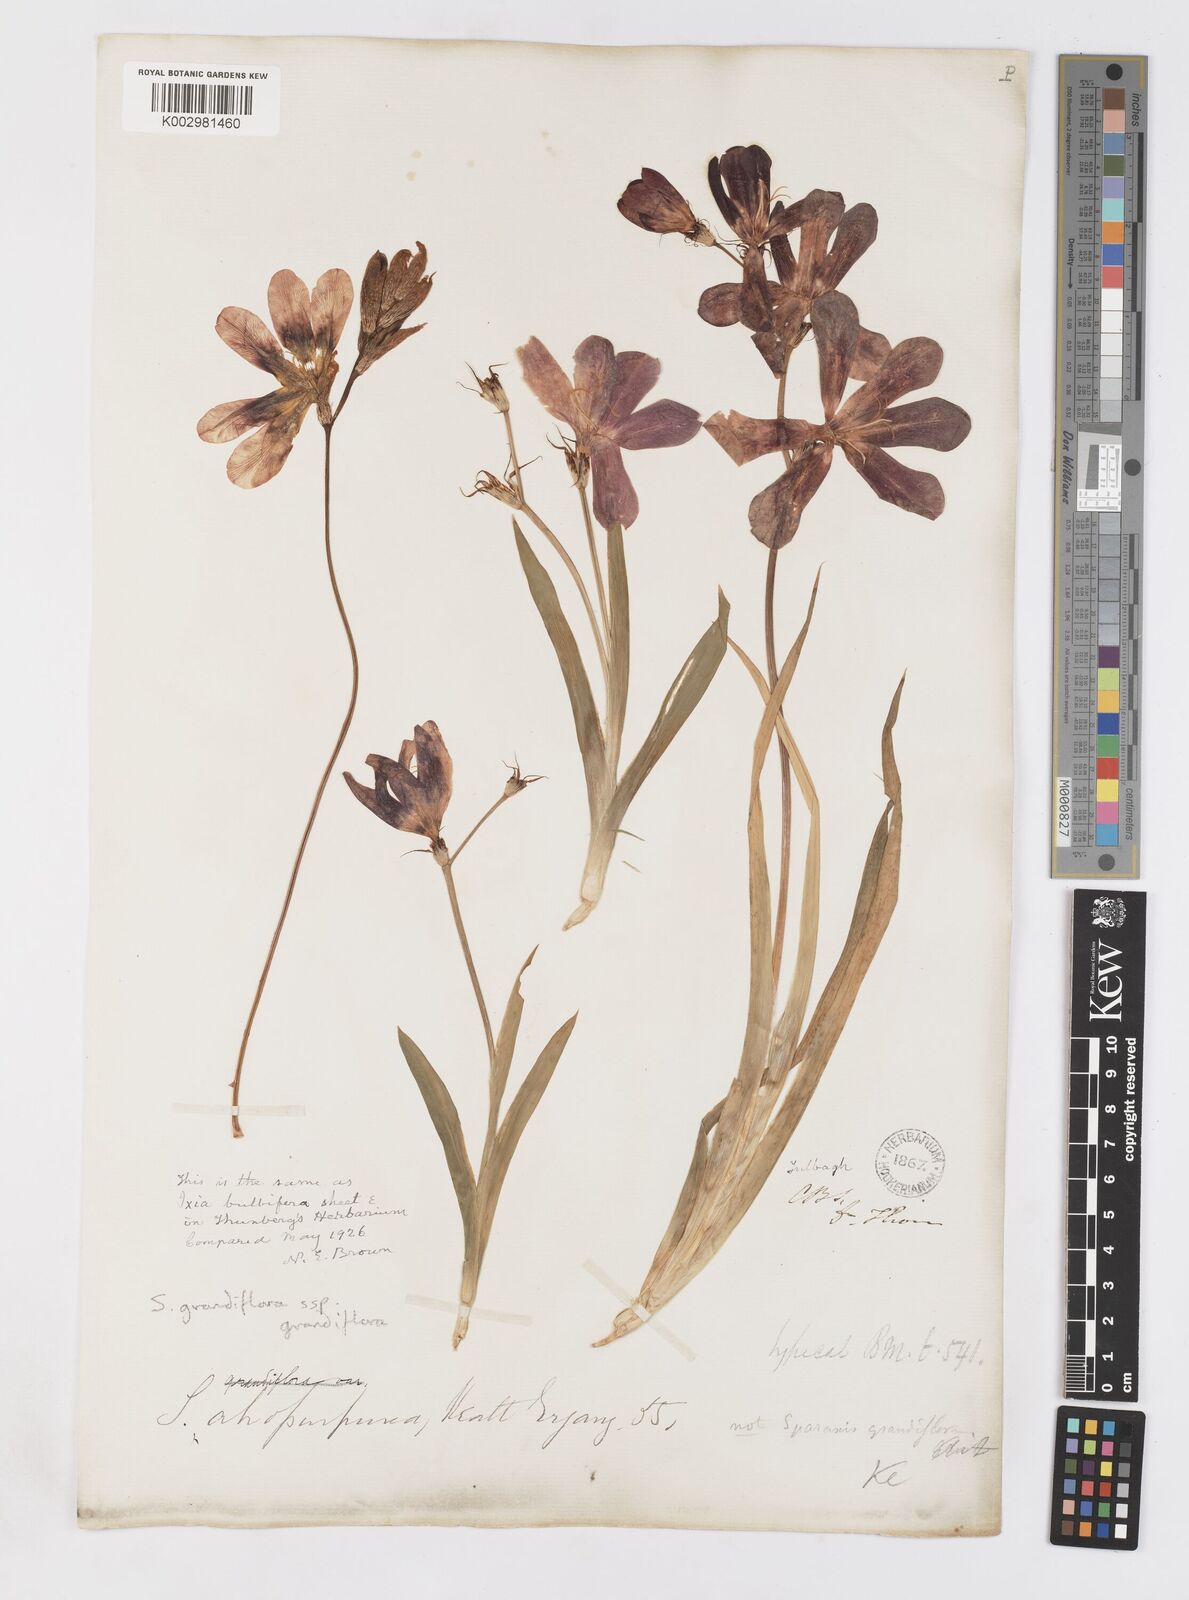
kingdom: Plantae
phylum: Tracheophyta
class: Liliopsida
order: Asparagales
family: Iridaceae
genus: Sparaxis
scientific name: Sparaxis grandiflora
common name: Plain harlequin-flower
